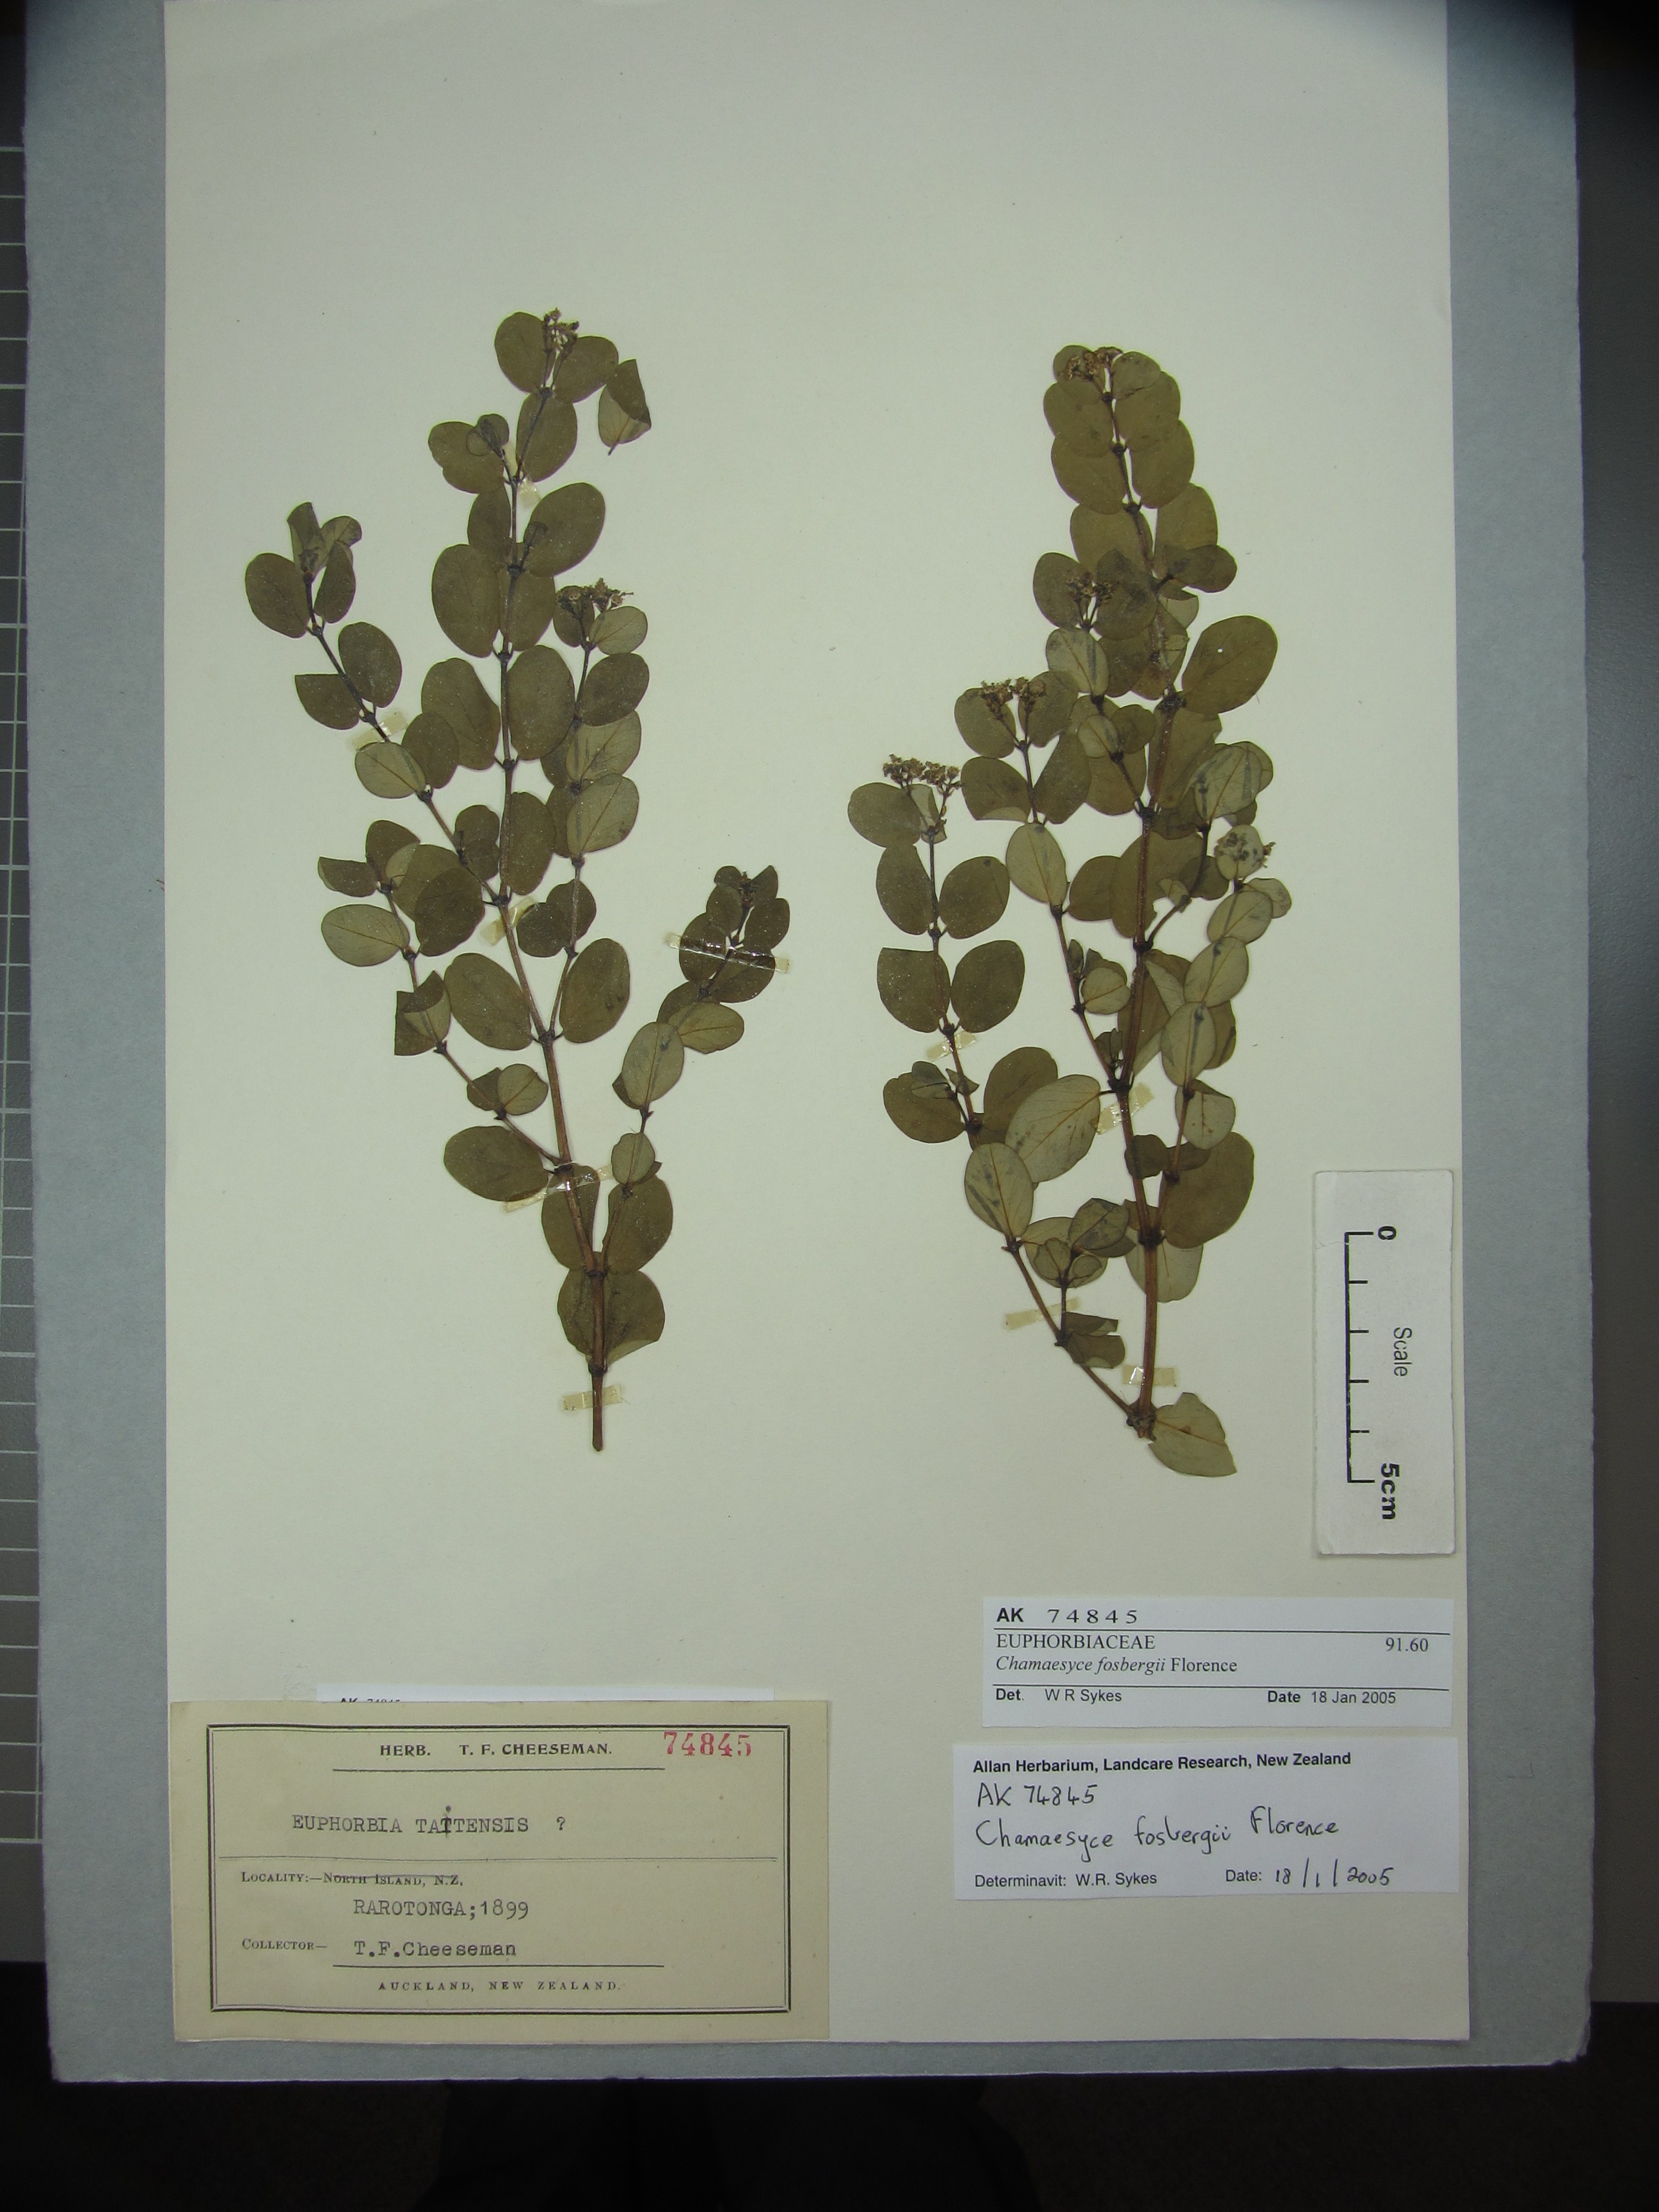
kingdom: Plantae
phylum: Tracheophyta
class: Magnoliopsida
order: Malpighiales
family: Euphorbiaceae
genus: Euphorbia
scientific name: Euphorbia fosbergii
